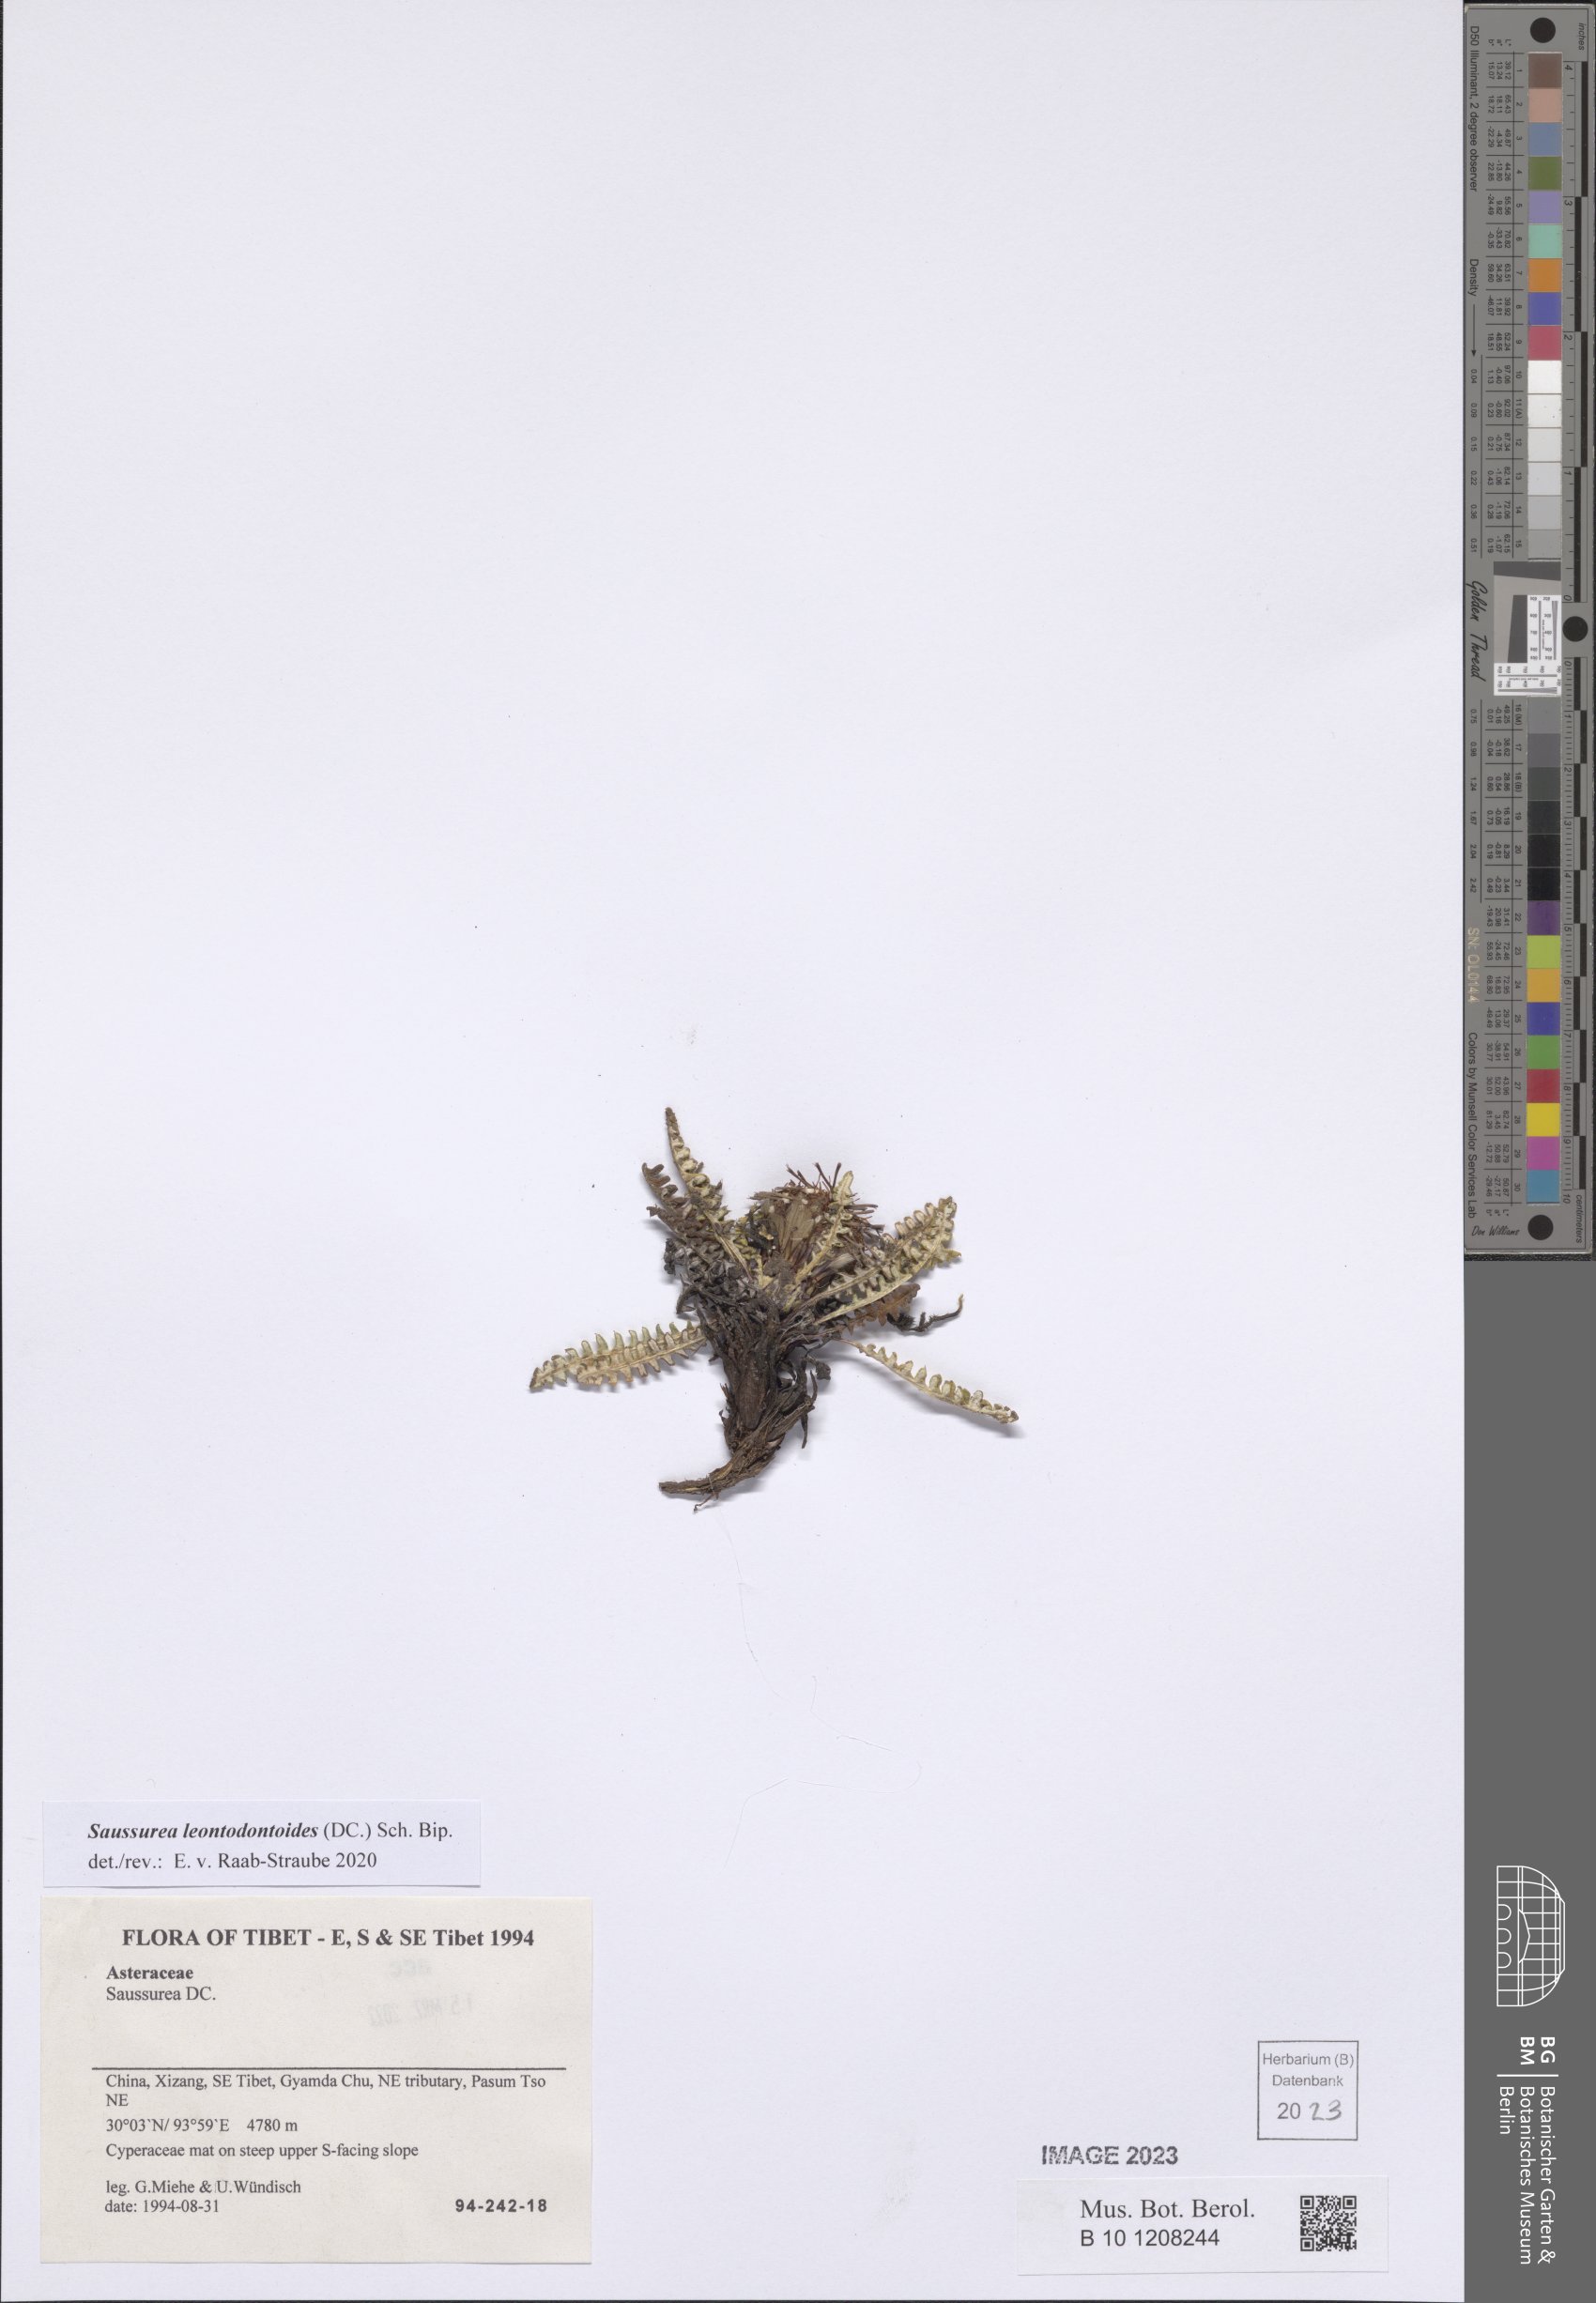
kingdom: Plantae
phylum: Tracheophyta
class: Magnoliopsida
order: Asterales
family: Asteraceae
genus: Saussurea
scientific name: Saussurea leontodontoides
